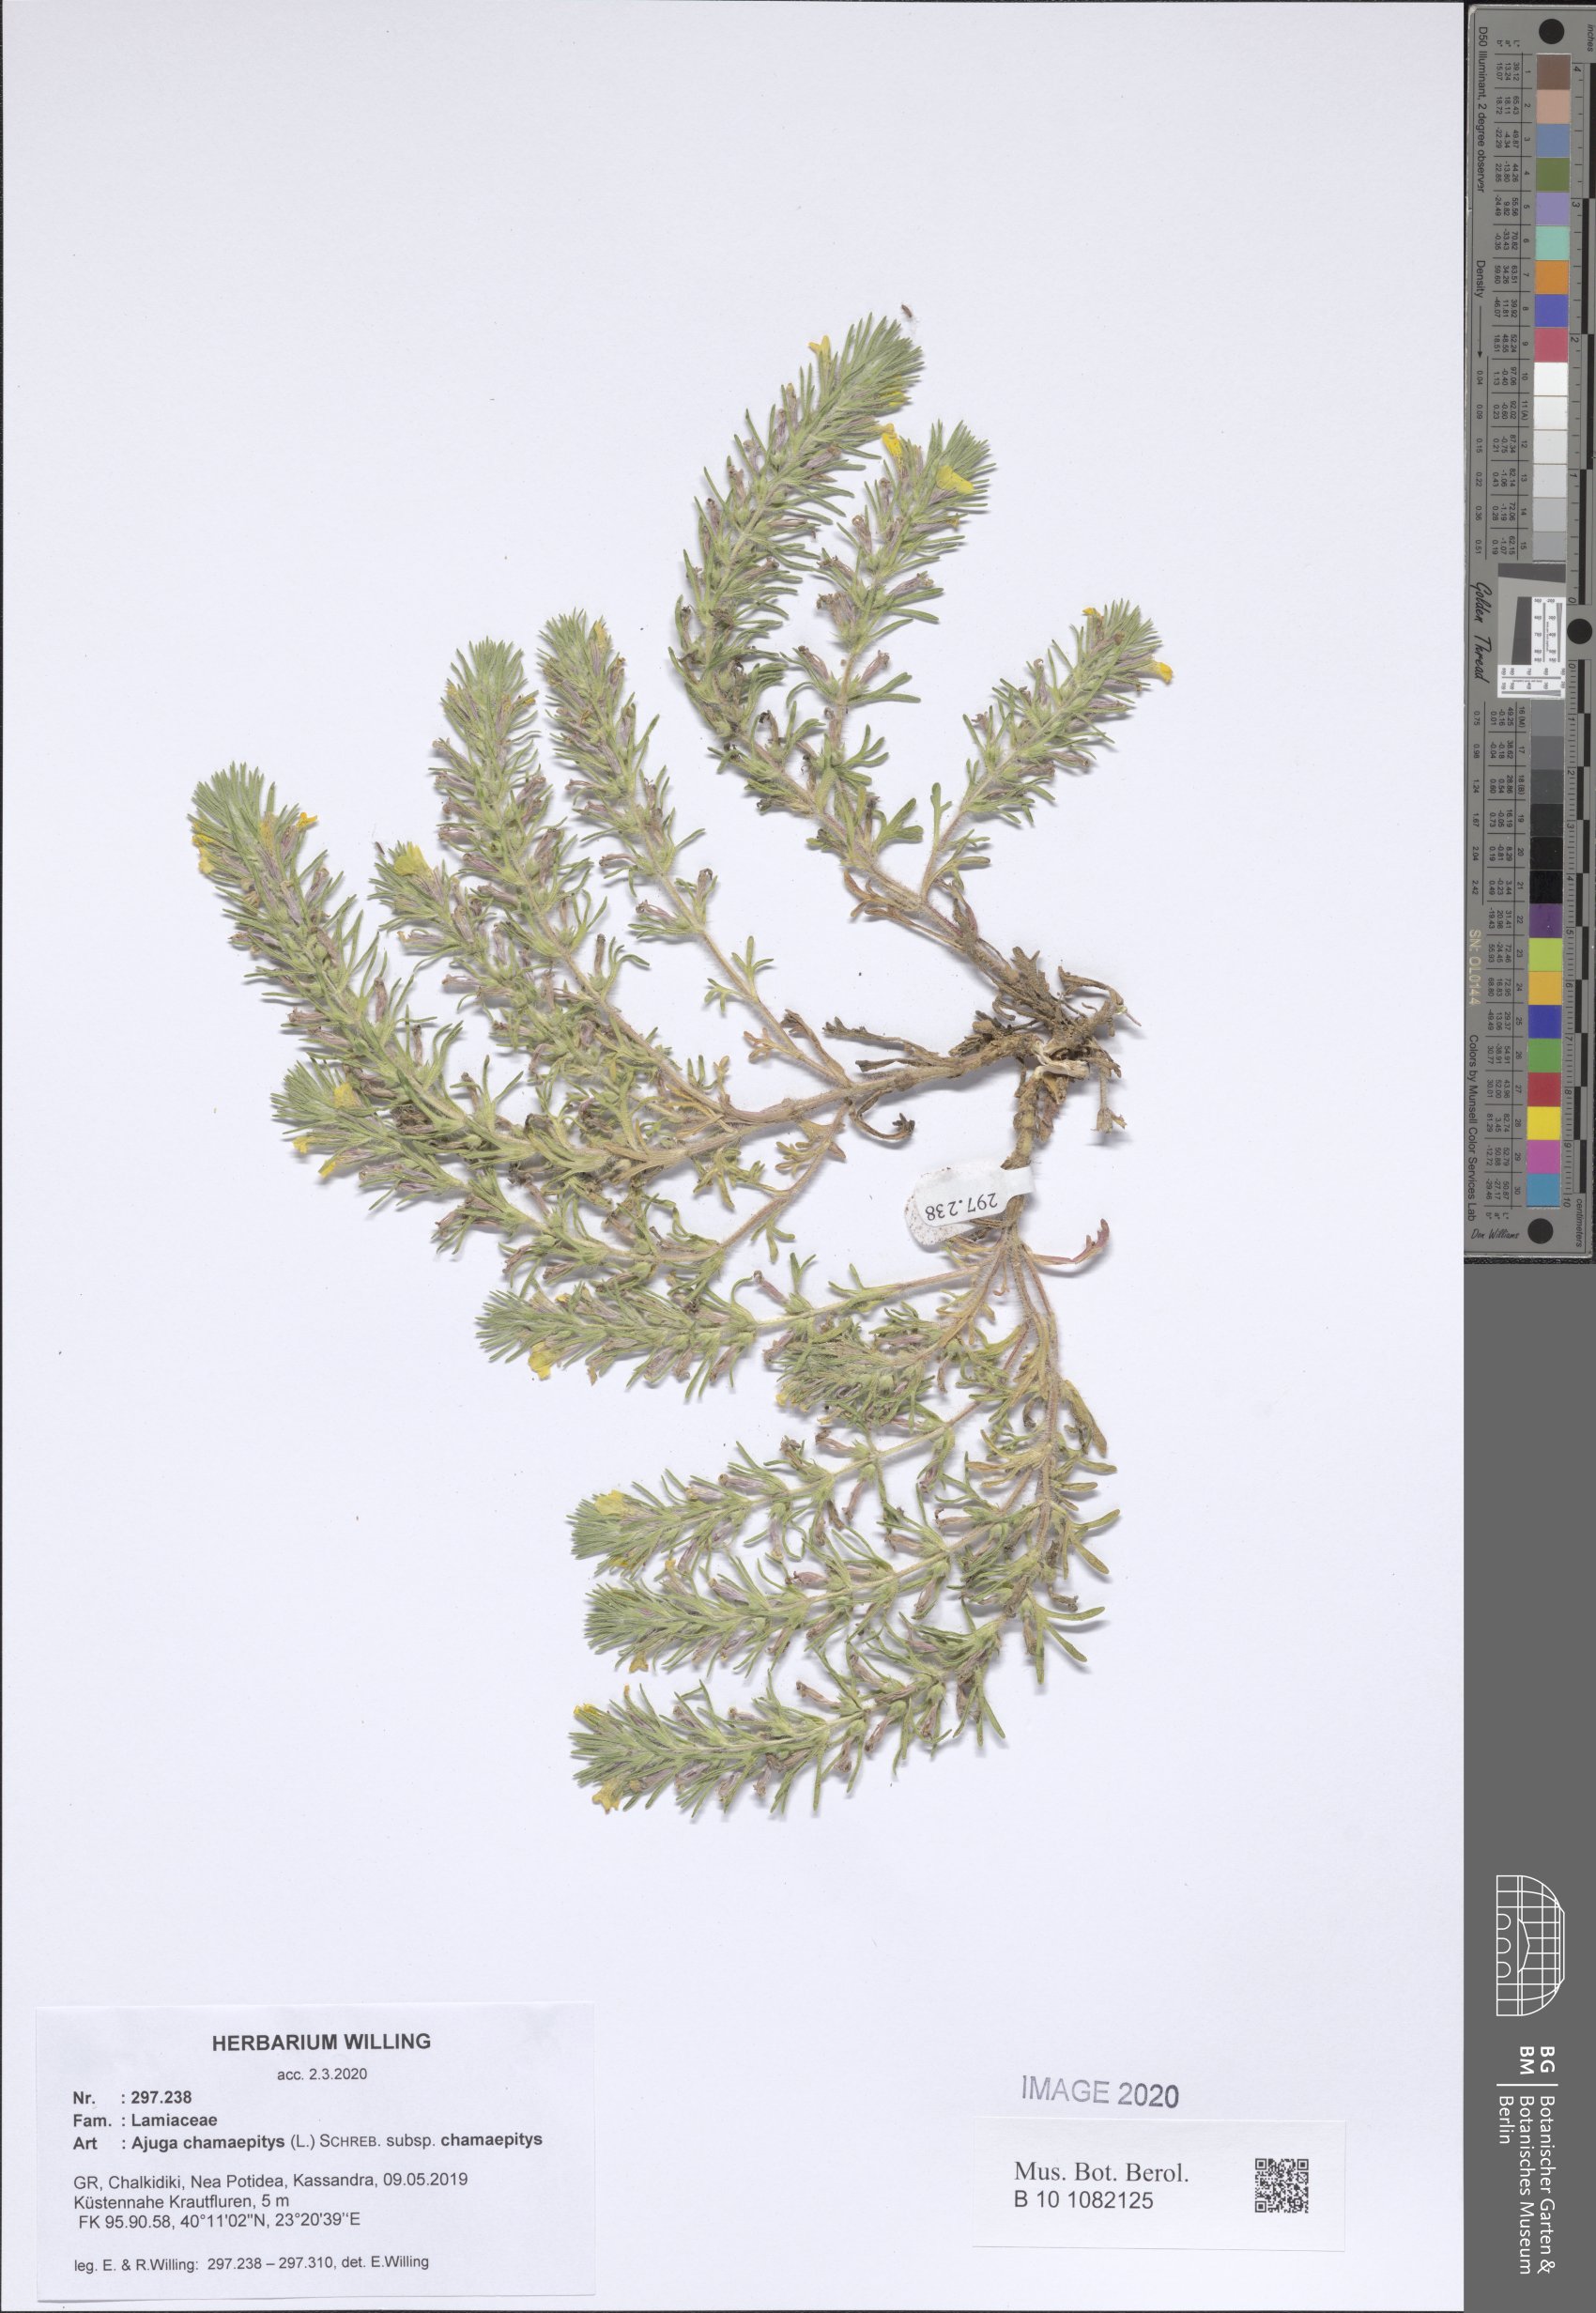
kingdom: Plantae
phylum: Tracheophyta
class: Magnoliopsida
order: Lamiales
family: Lamiaceae
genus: Ajuga
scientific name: Ajuga chamaepitys
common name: Ground-pine
